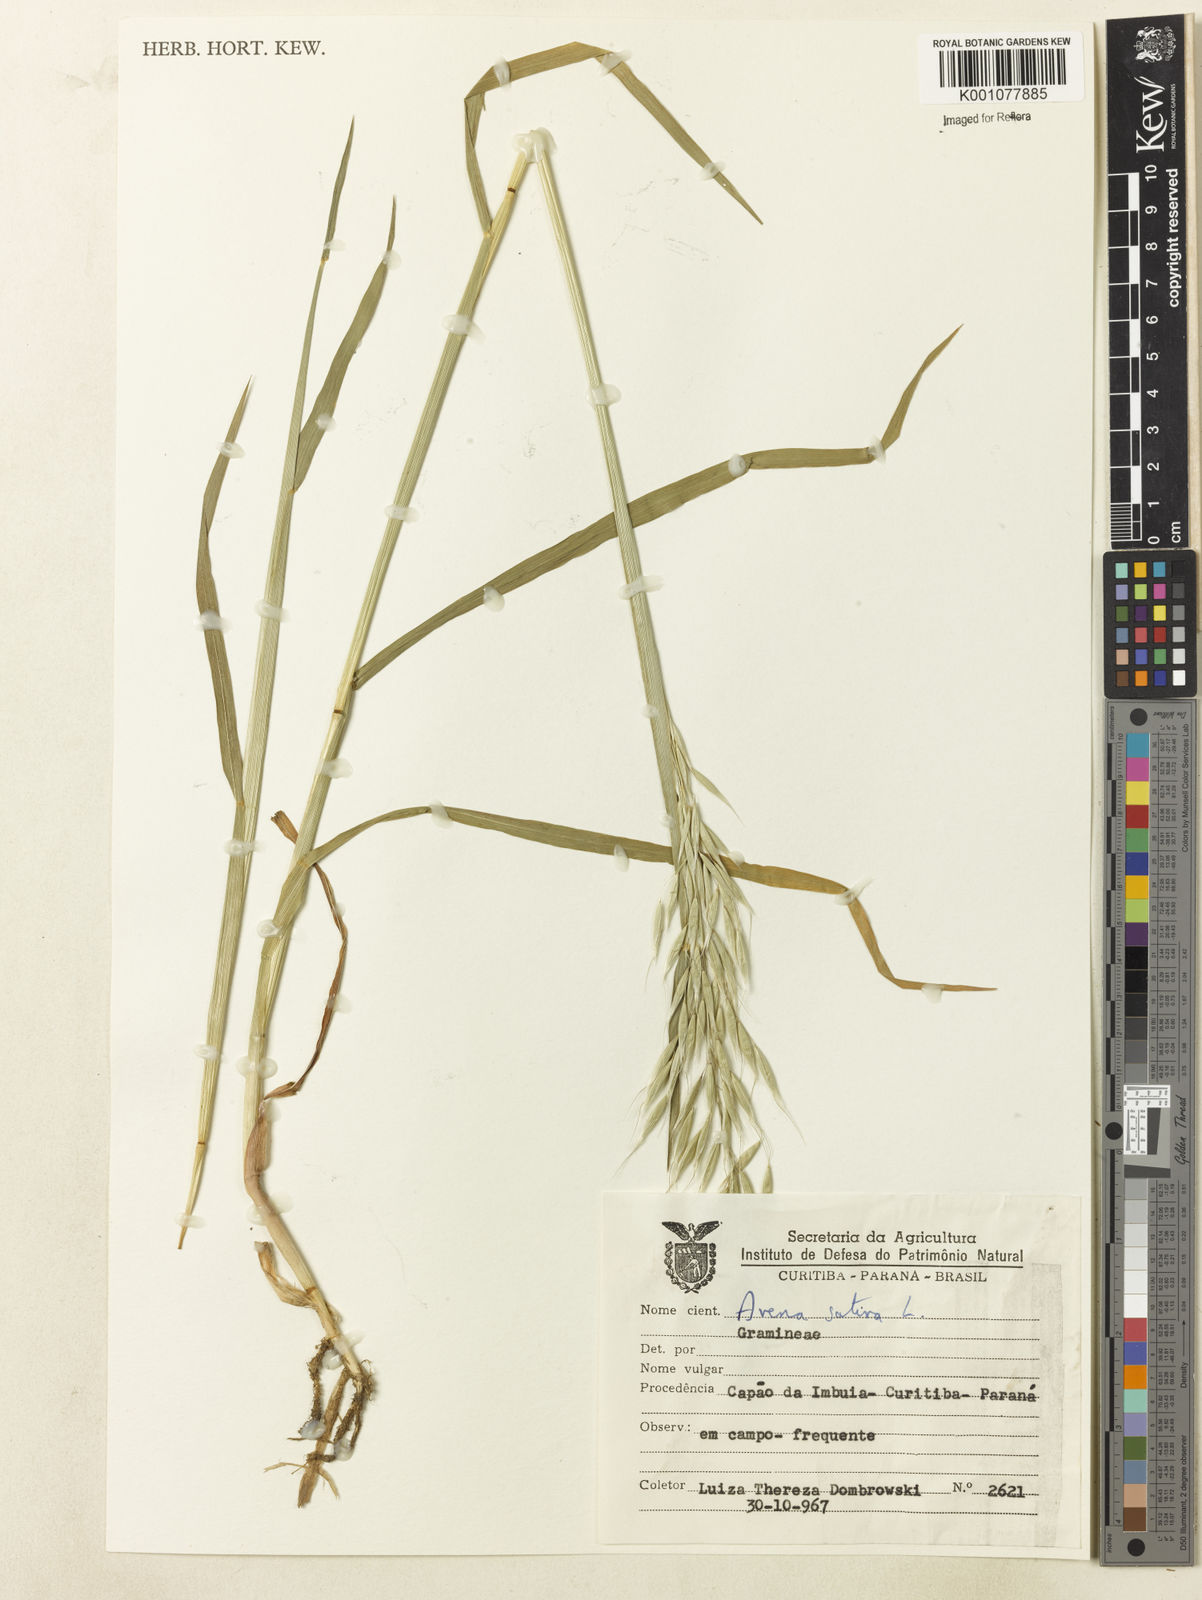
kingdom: Plantae
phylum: Tracheophyta
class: Liliopsida
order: Poales
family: Poaceae
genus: Avena
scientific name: Avena sativa
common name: Oat
